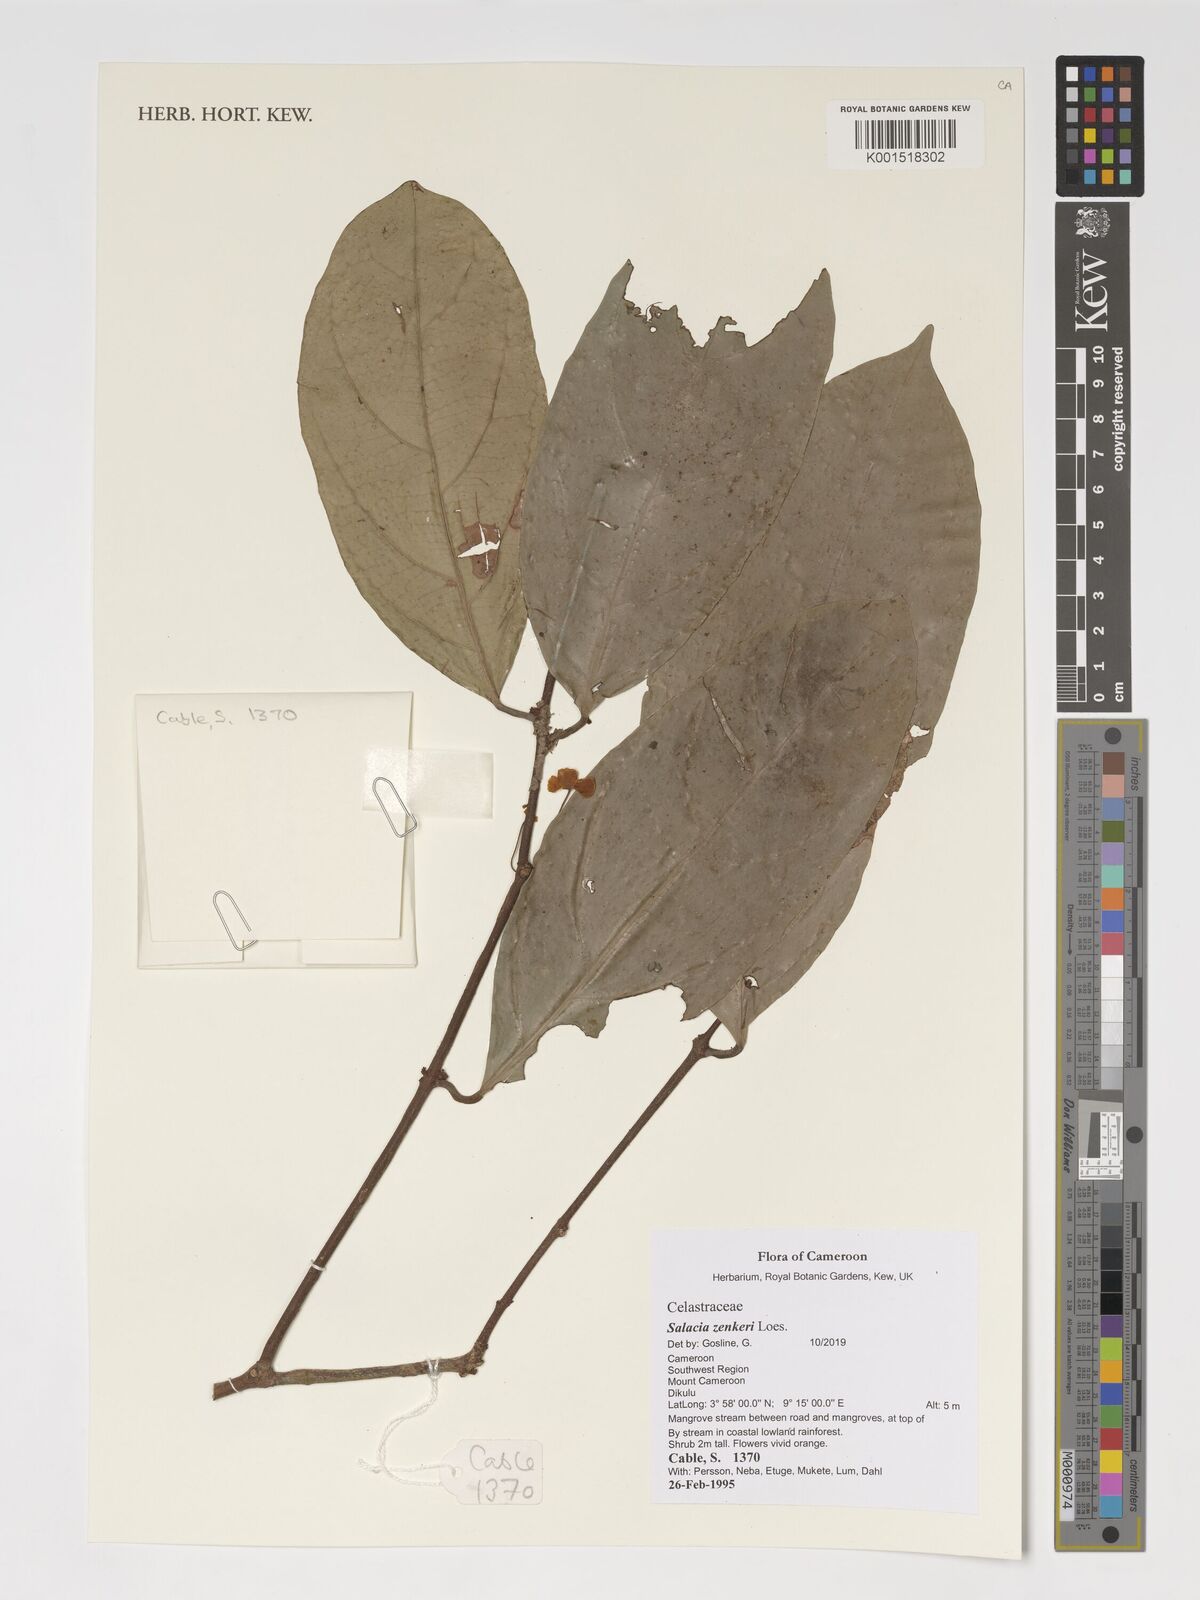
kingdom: Plantae
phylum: Tracheophyta
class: Magnoliopsida
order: Celastrales
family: Celastraceae
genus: Salacia
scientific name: Salacia zenkeri
